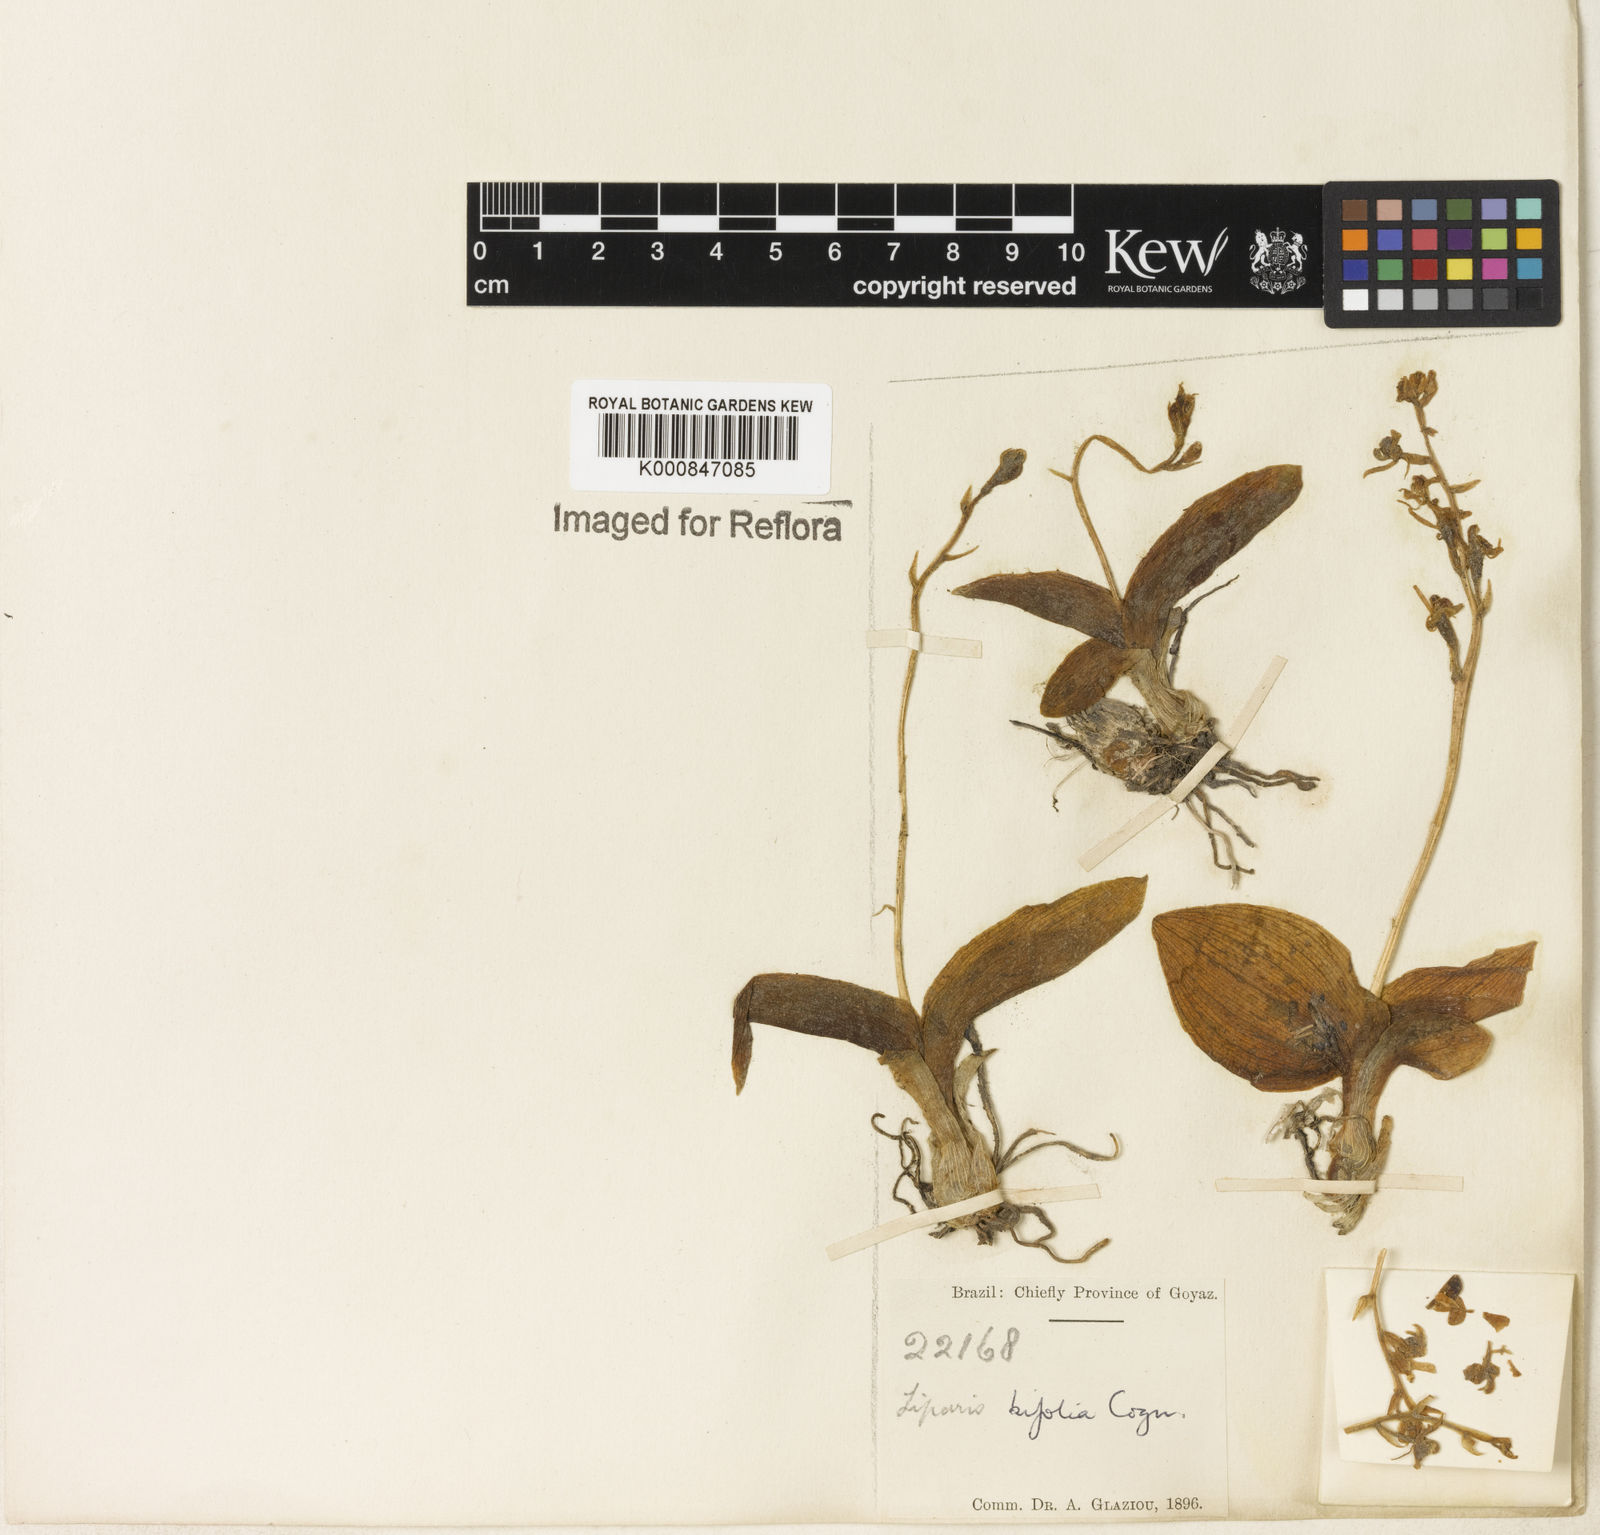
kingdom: Plantae
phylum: Tracheophyta
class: Liliopsida
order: Asparagales
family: Orchidaceae
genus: Liparis
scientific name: Liparis cogniauxiana
